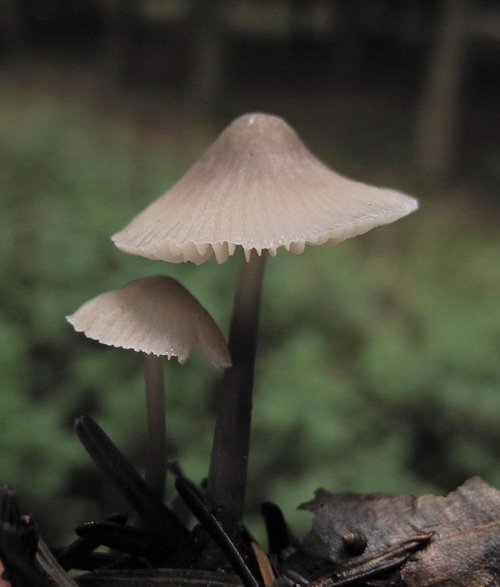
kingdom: Fungi
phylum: Basidiomycota
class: Agaricomycetes
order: Agaricales
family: Mycenaceae
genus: Mycena
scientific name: Mycena abramsii
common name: sommer-huesvamp
